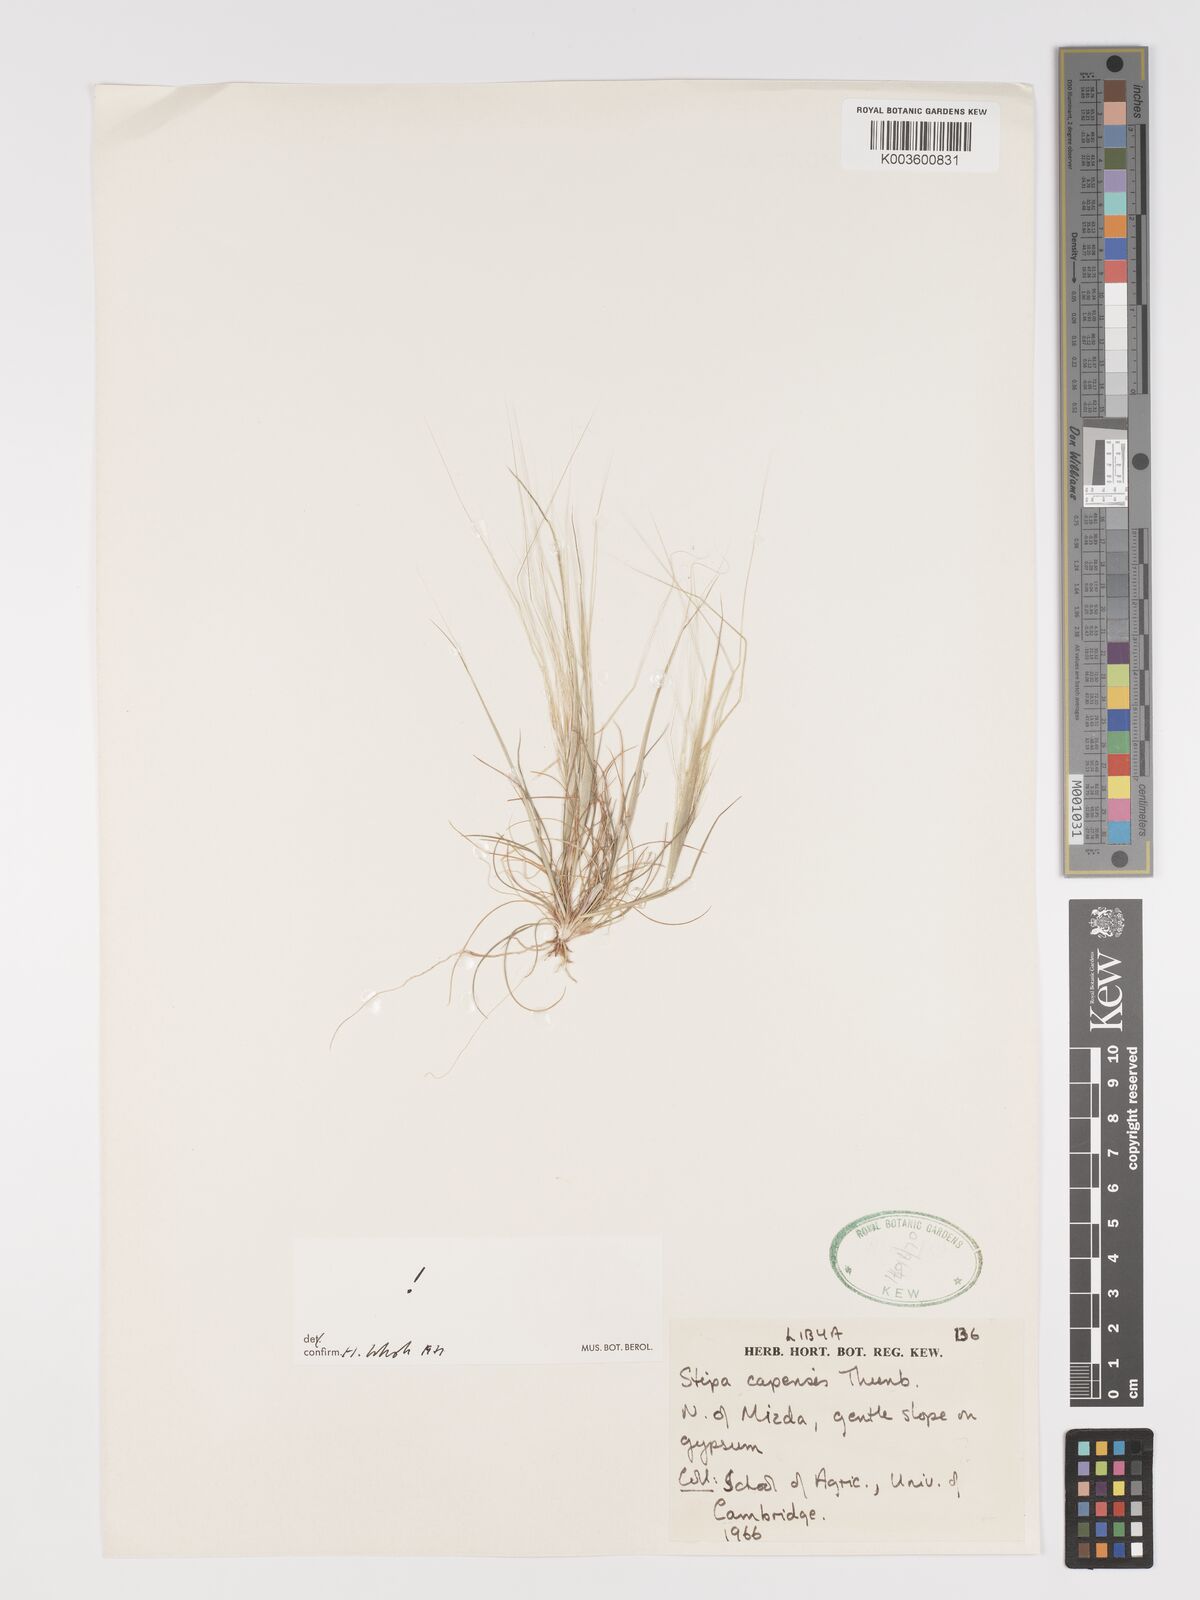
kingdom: Plantae
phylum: Tracheophyta
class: Liliopsida
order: Poales
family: Poaceae
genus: Stipellula
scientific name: Stipellula capensis
